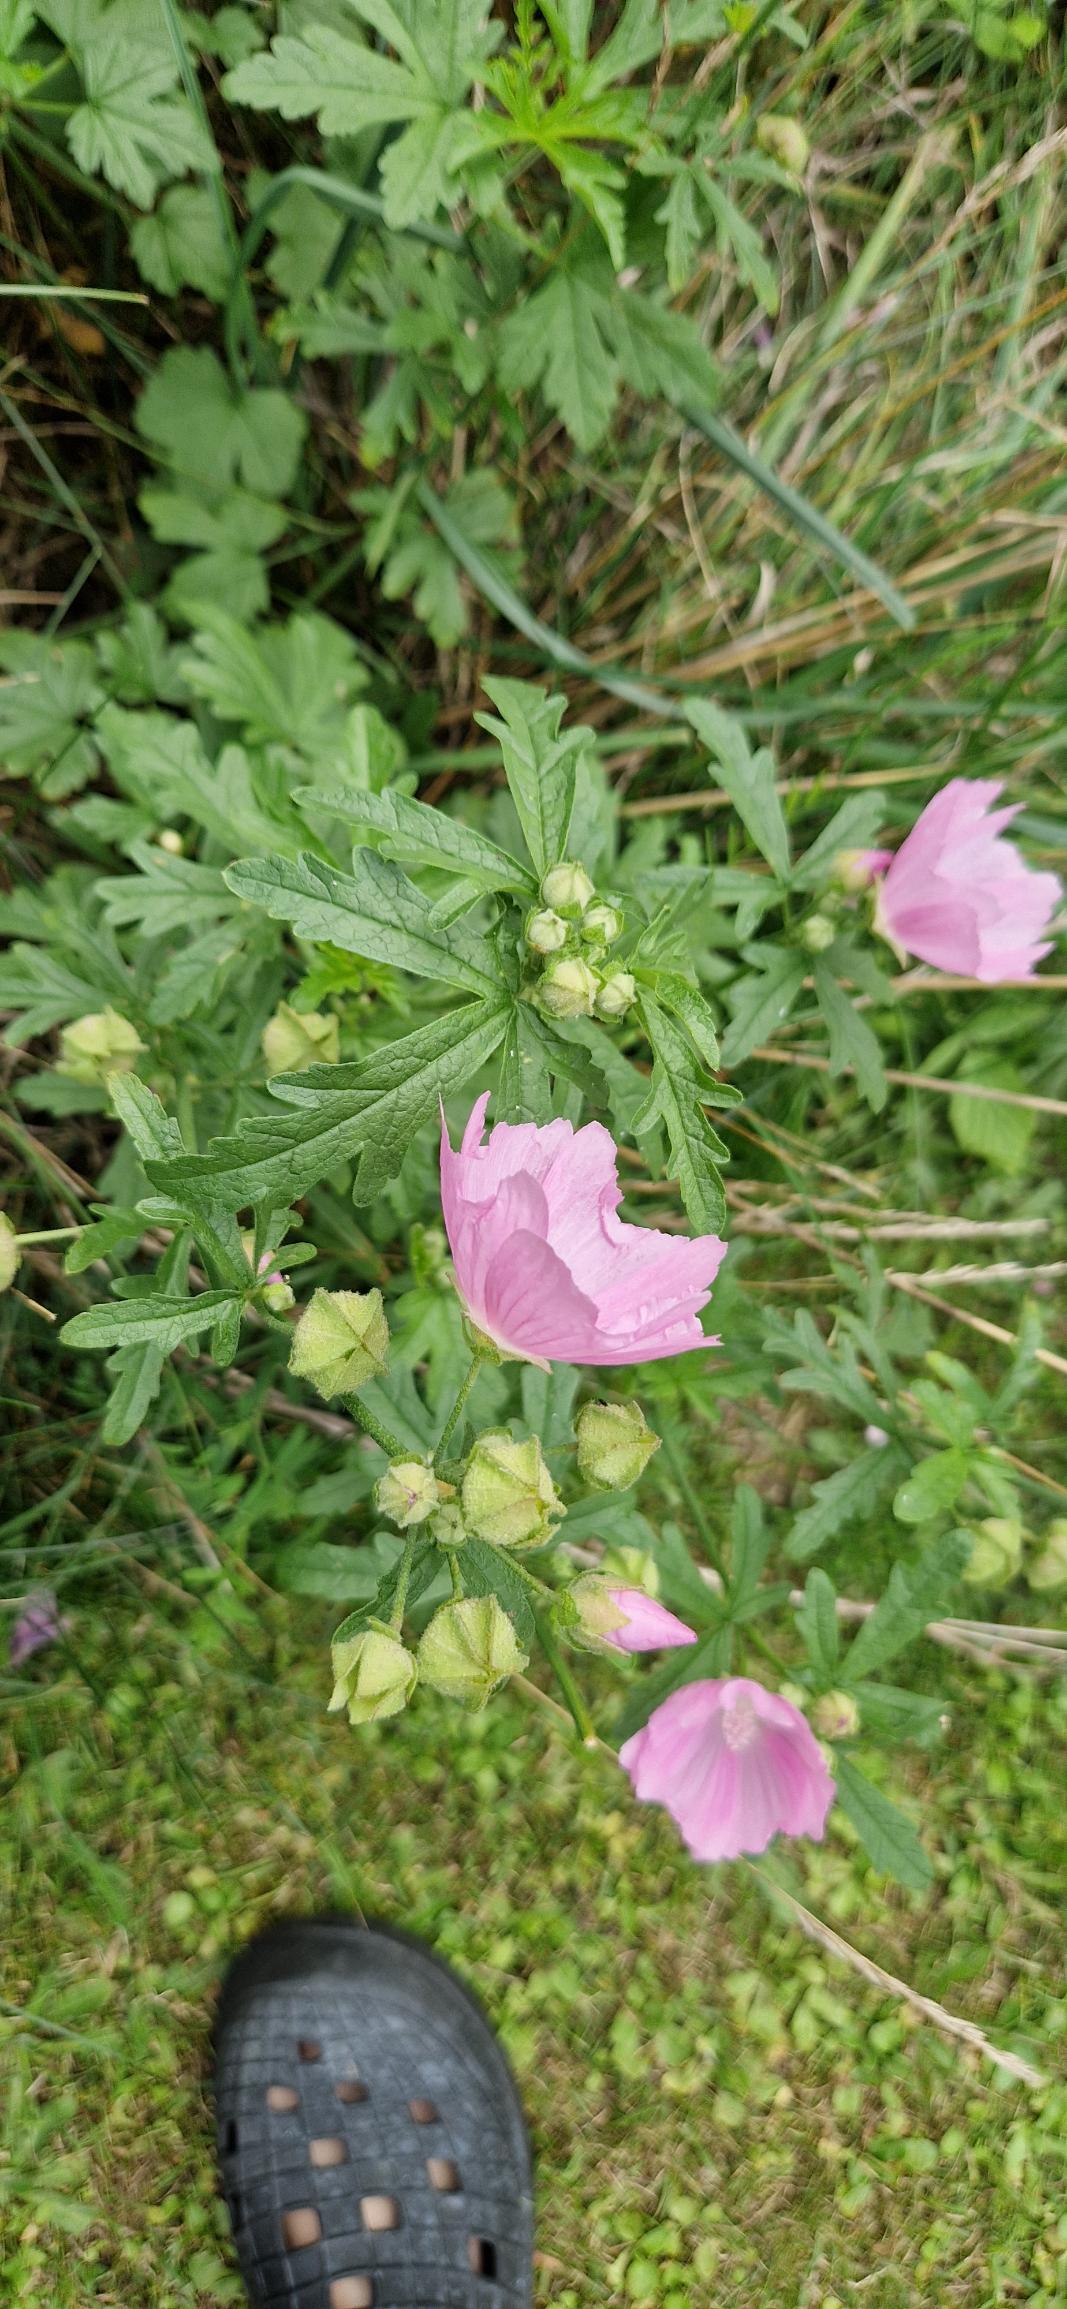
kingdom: Plantae
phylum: Tracheophyta
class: Magnoliopsida
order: Malvales
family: Malvaceae
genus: Malva
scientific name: Malva alcea
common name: Rosen-katost
